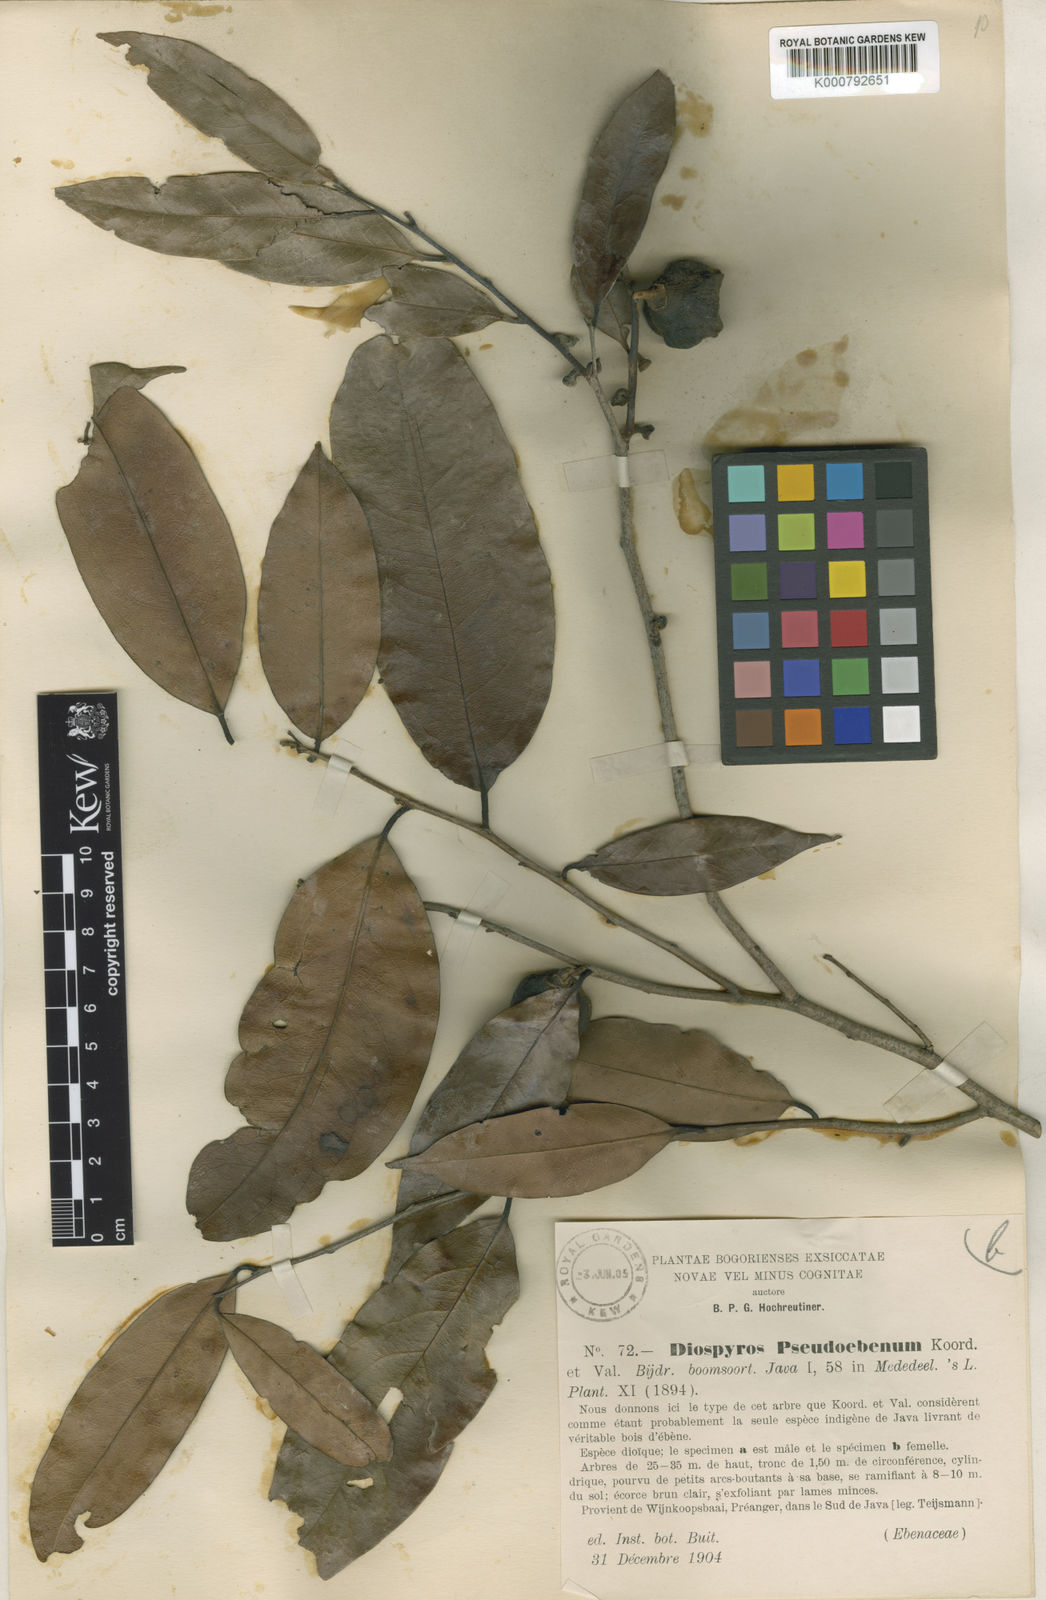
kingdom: Plantae
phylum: Tracheophyta
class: Magnoliopsida
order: Ericales
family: Ebenaceae
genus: Diospyros
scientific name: Diospyros
